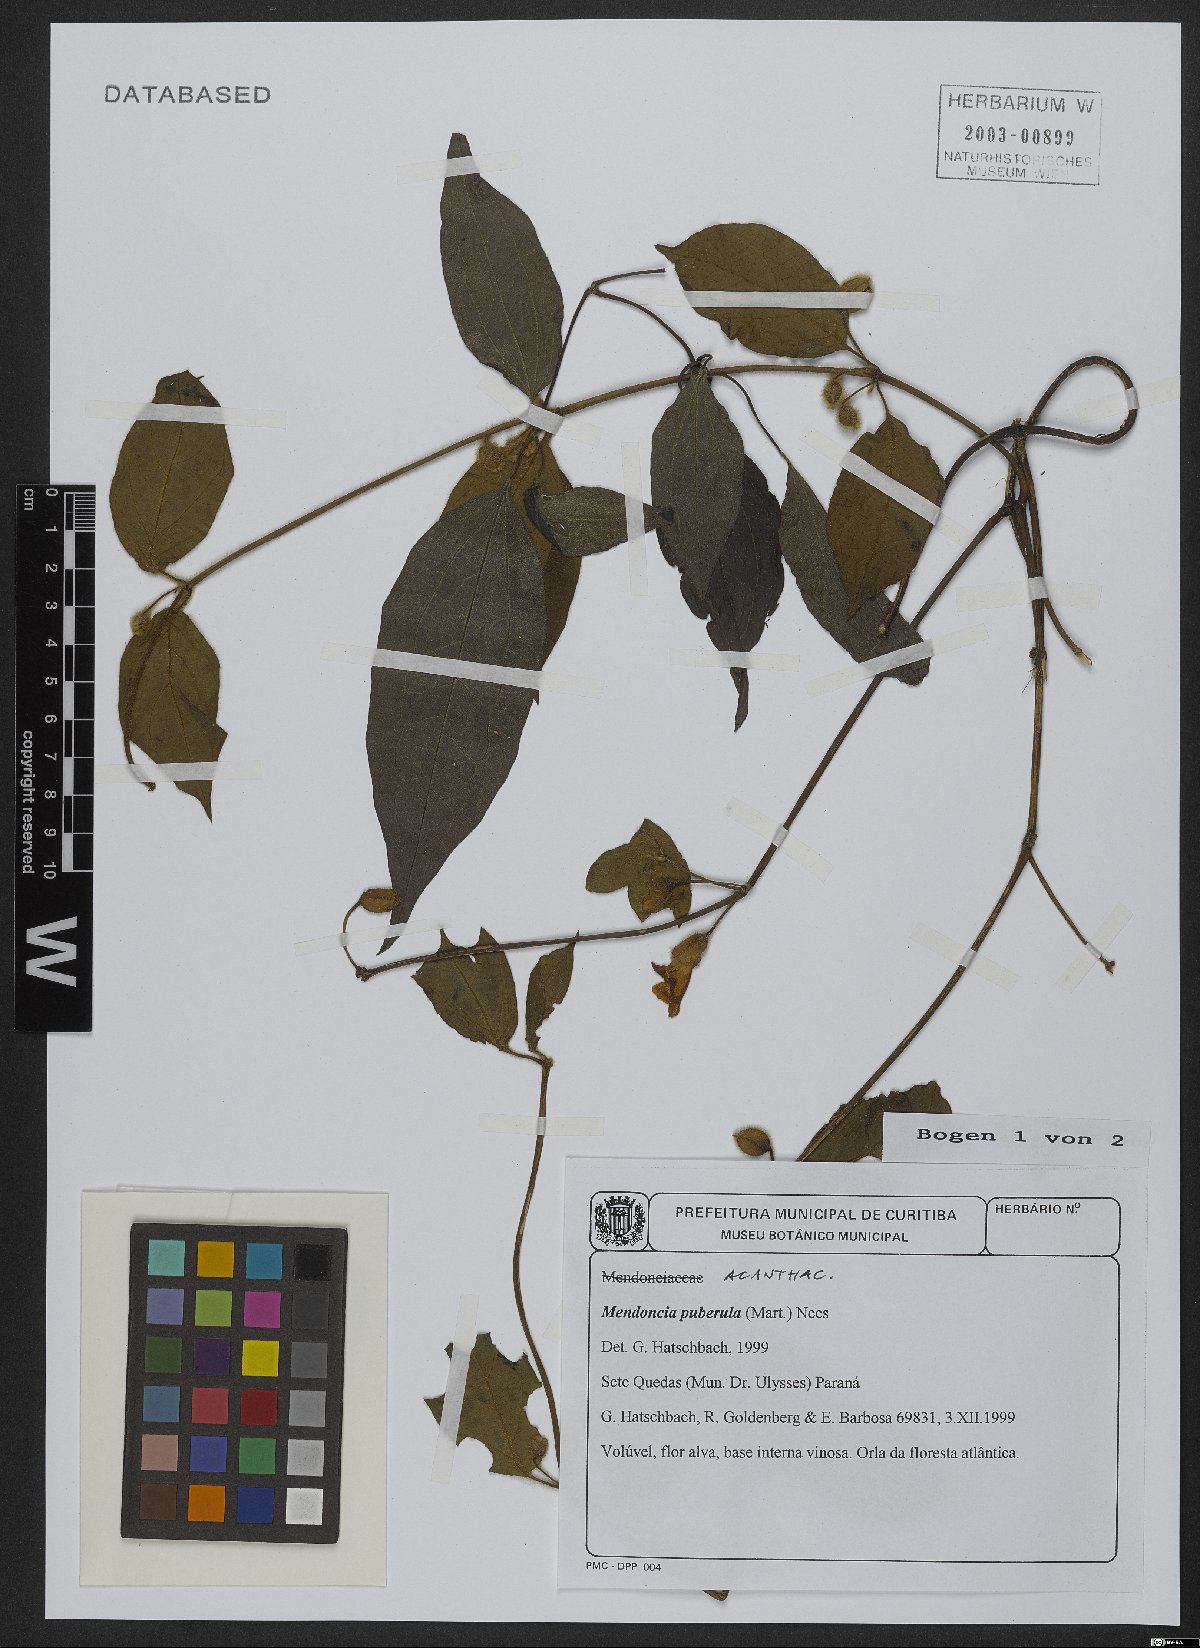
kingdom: Plantae
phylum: Tracheophyta
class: Magnoliopsida
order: Lamiales
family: Acanthaceae
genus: Mendoncia
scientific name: Mendoncia puberula
